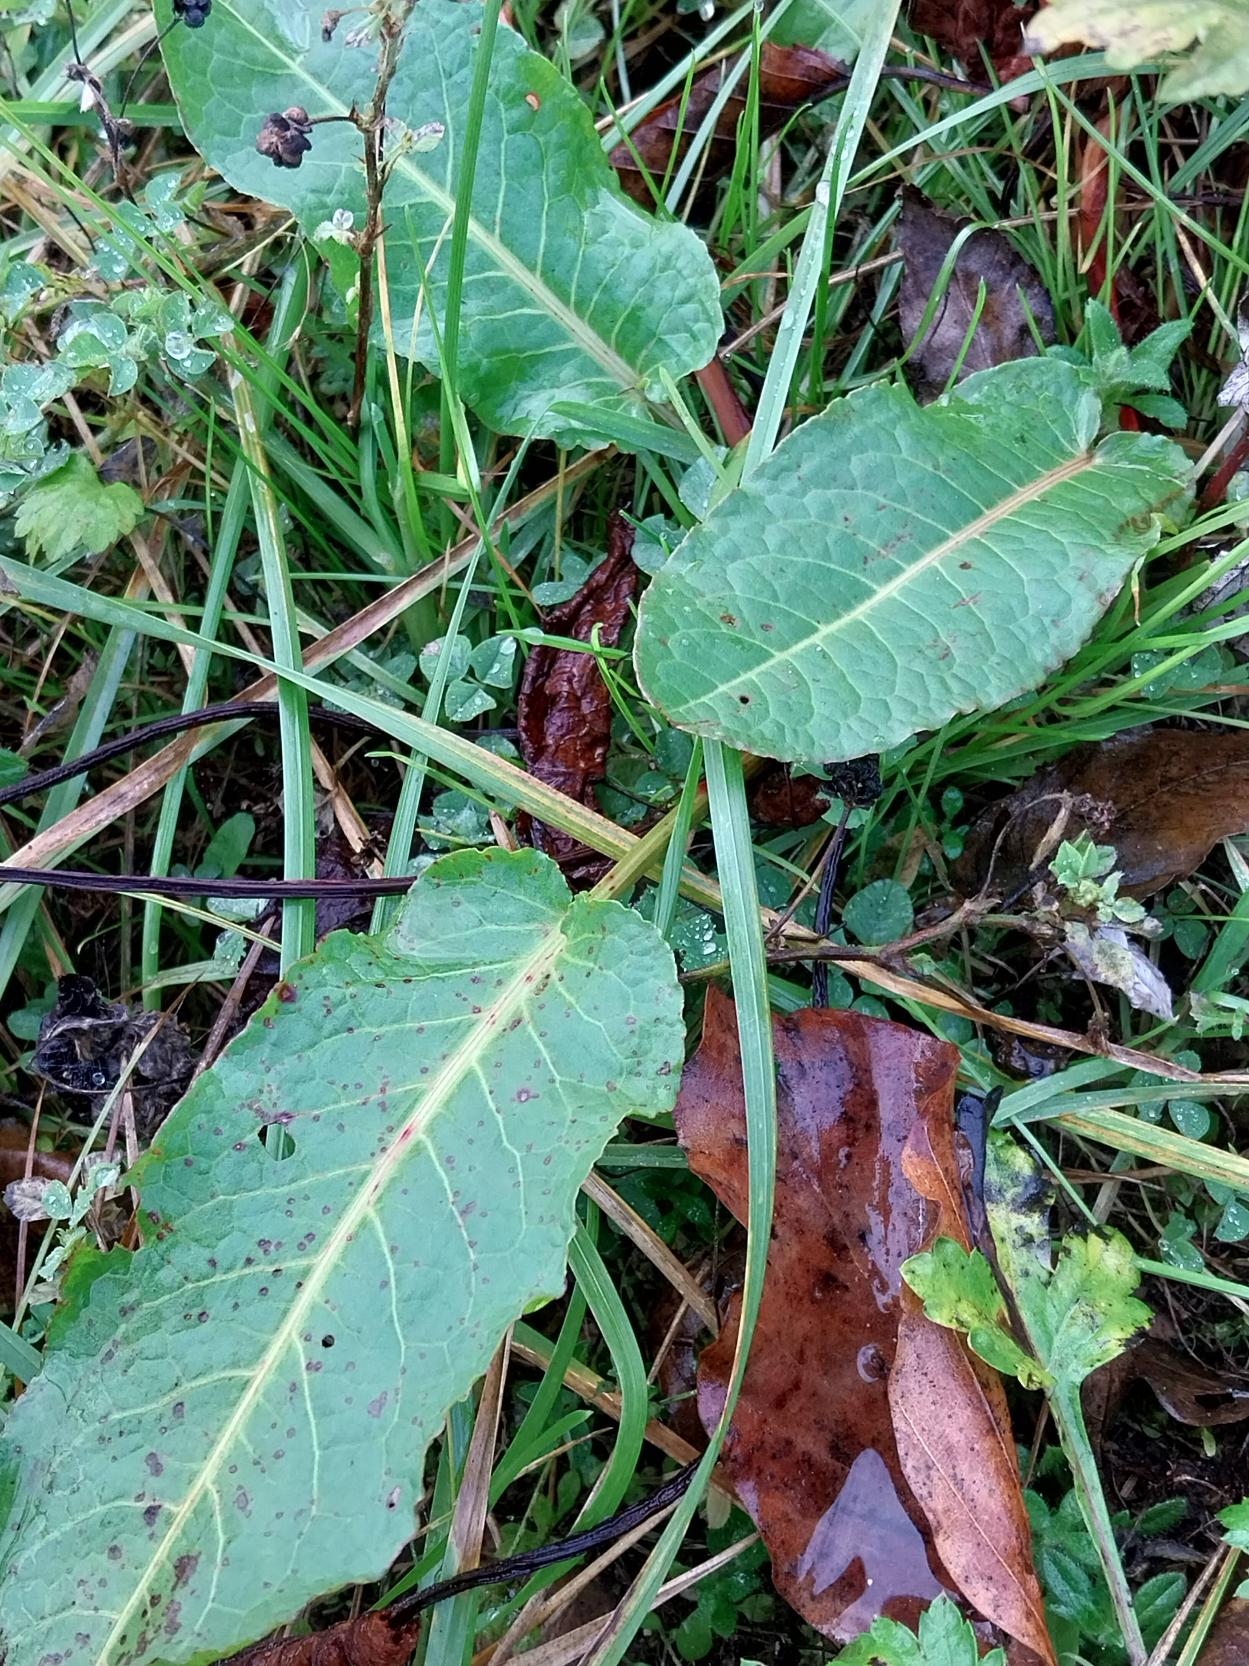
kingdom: Plantae
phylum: Tracheophyta
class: Magnoliopsida
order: Caryophyllales
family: Polygonaceae
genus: Rumex
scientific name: Rumex obtusifolius
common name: Butbladet skræppe
